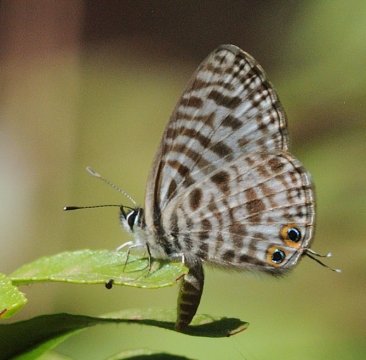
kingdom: Animalia
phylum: Arthropoda
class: Insecta
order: Lepidoptera
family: Lycaenidae
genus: Leptotes
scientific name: Leptotes pirithous
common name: Lang's Short-tailed Blue
